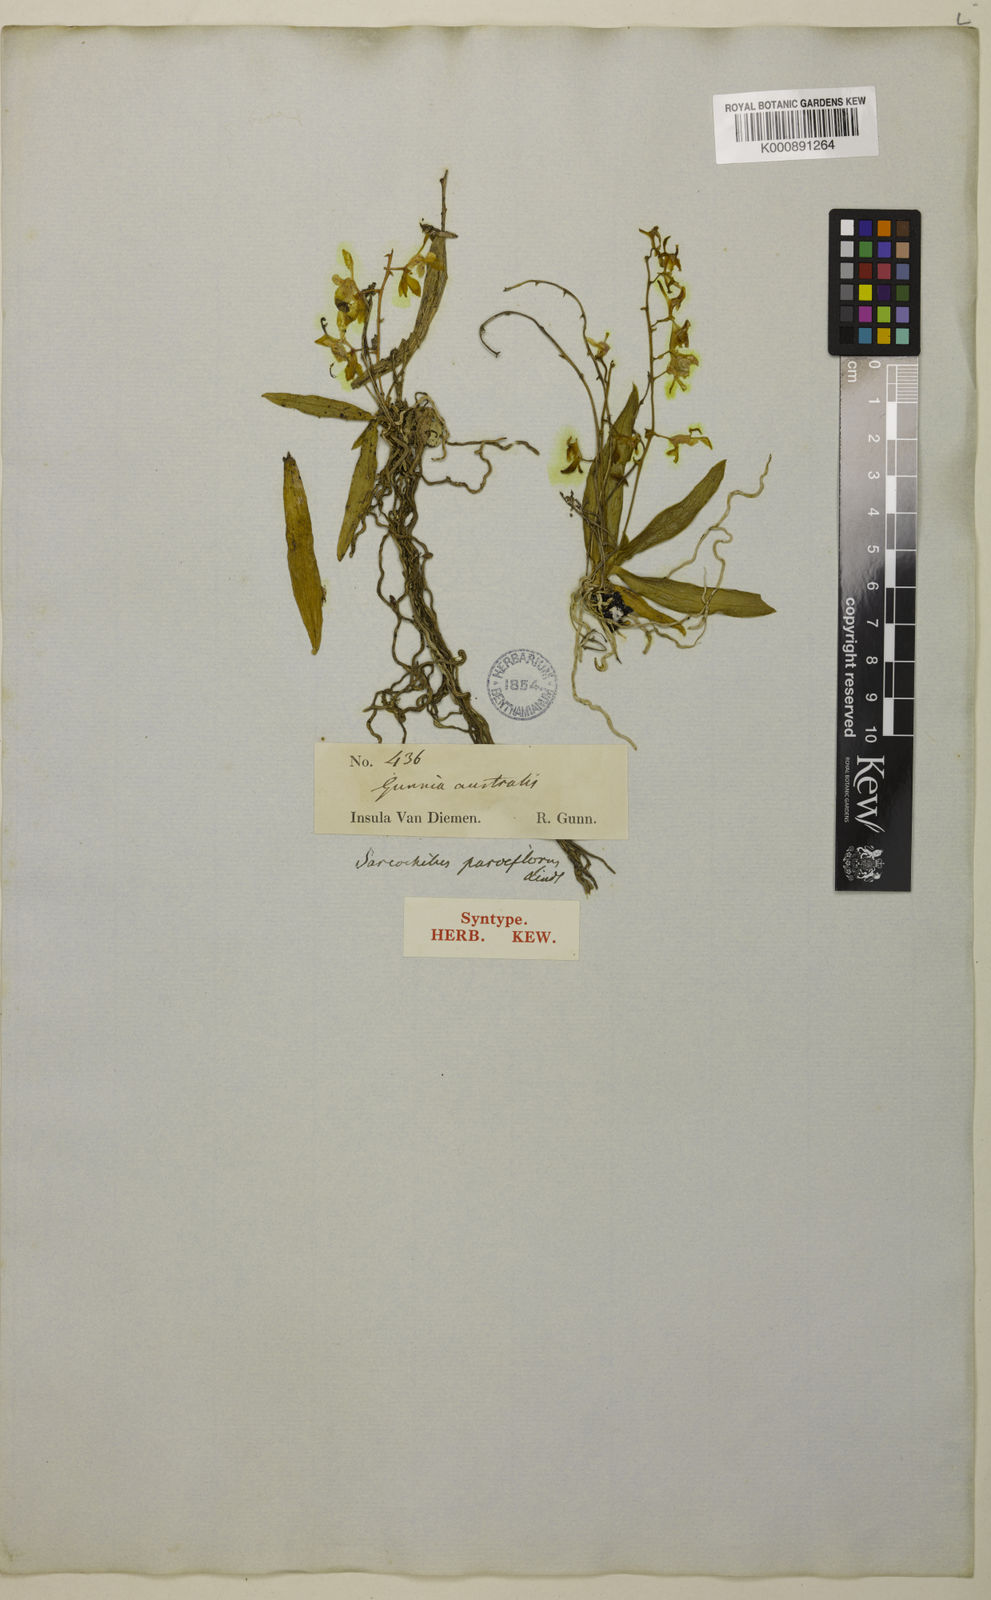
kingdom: Plantae
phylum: Tracheophyta
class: Liliopsida
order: Asparagales
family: Orchidaceae
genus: Sarcochilus
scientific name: Sarcochilus australis
